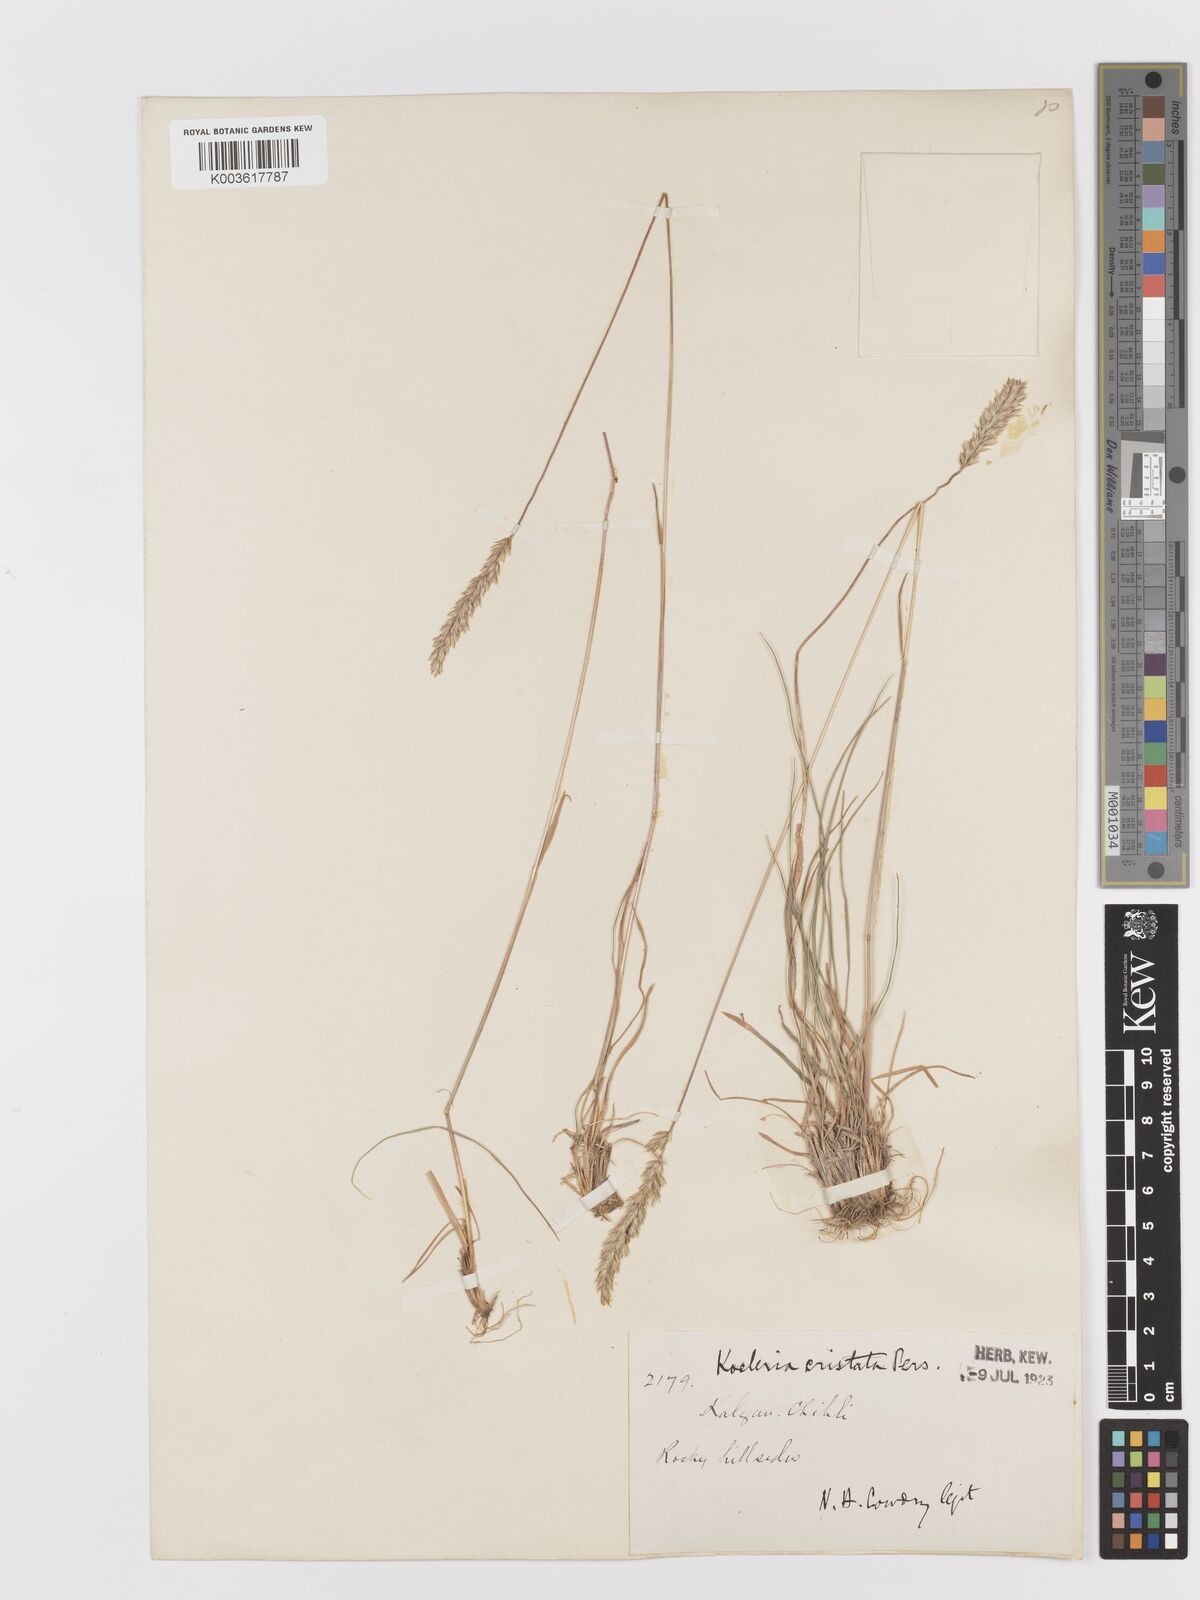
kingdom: Plantae
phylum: Tracheophyta
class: Liliopsida
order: Poales
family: Poaceae
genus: Koeleria
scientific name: Koeleria macrantha
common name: Crested hair-grass
